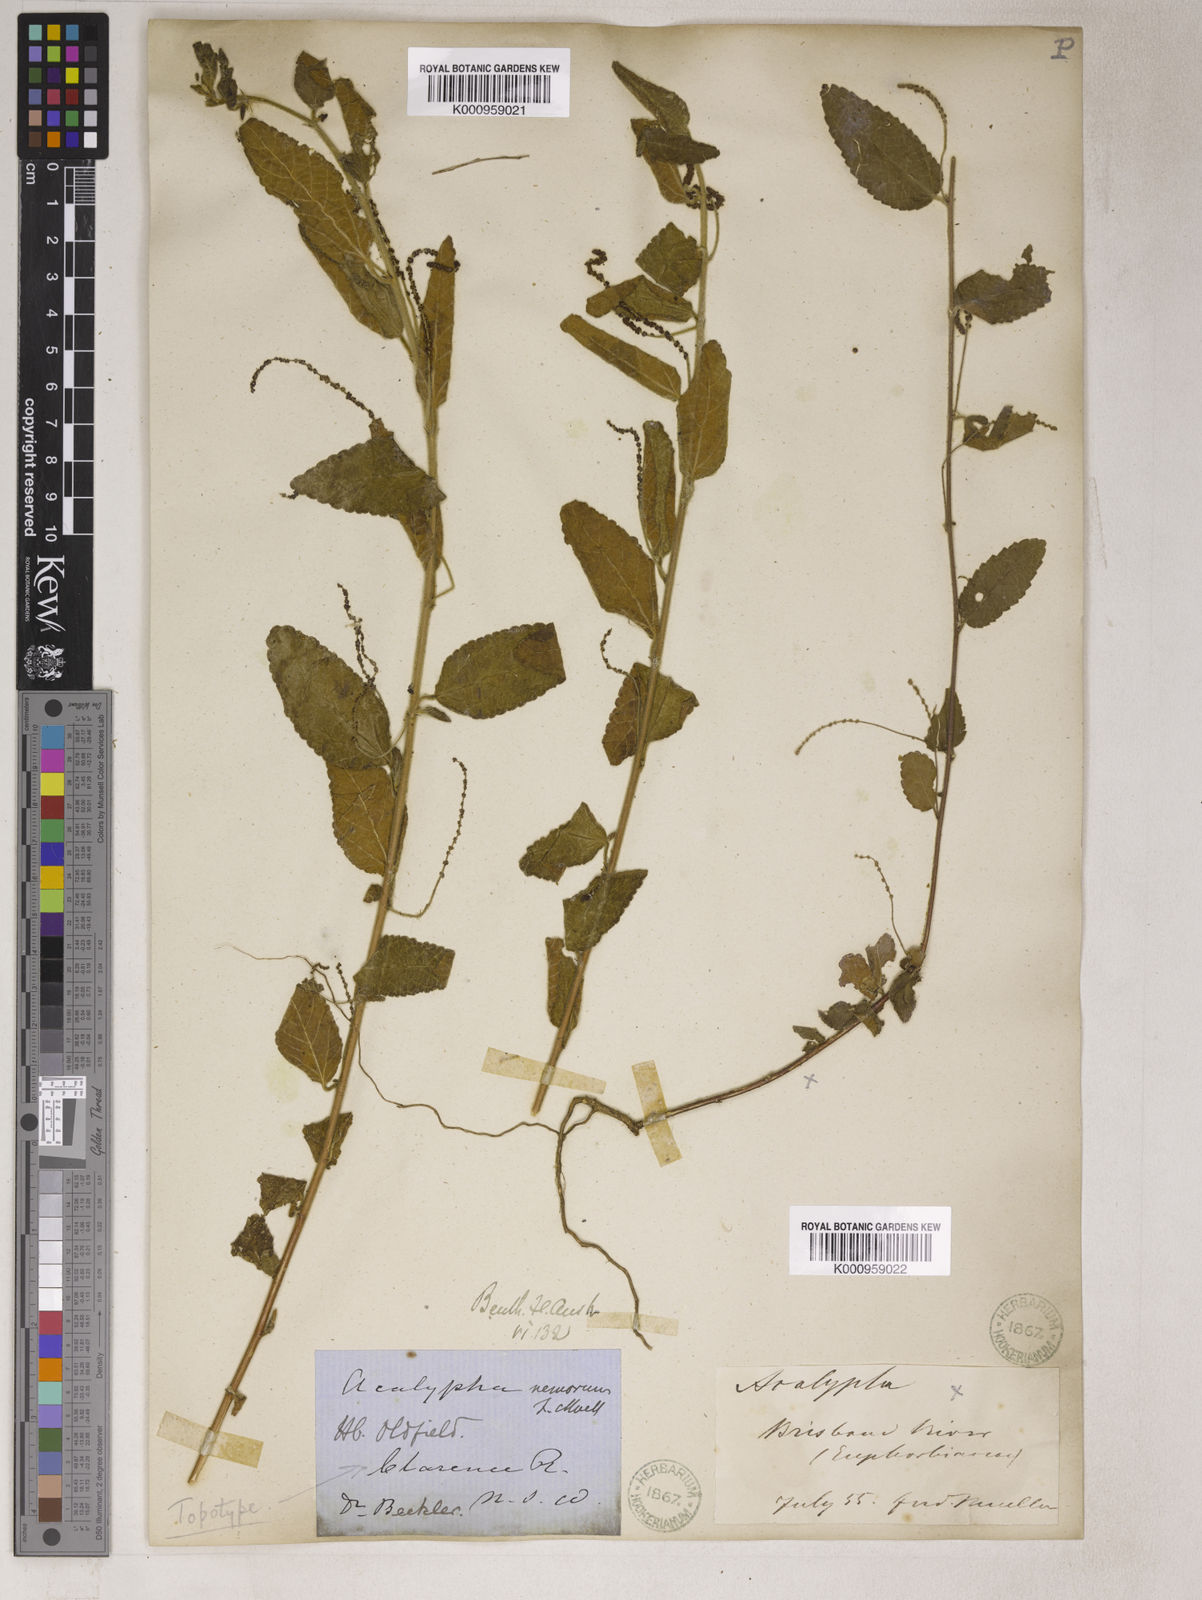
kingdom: Plantae
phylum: Tracheophyta
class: Magnoliopsida
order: Malpighiales
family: Euphorbiaceae
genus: Acalypha
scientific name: Acalypha
